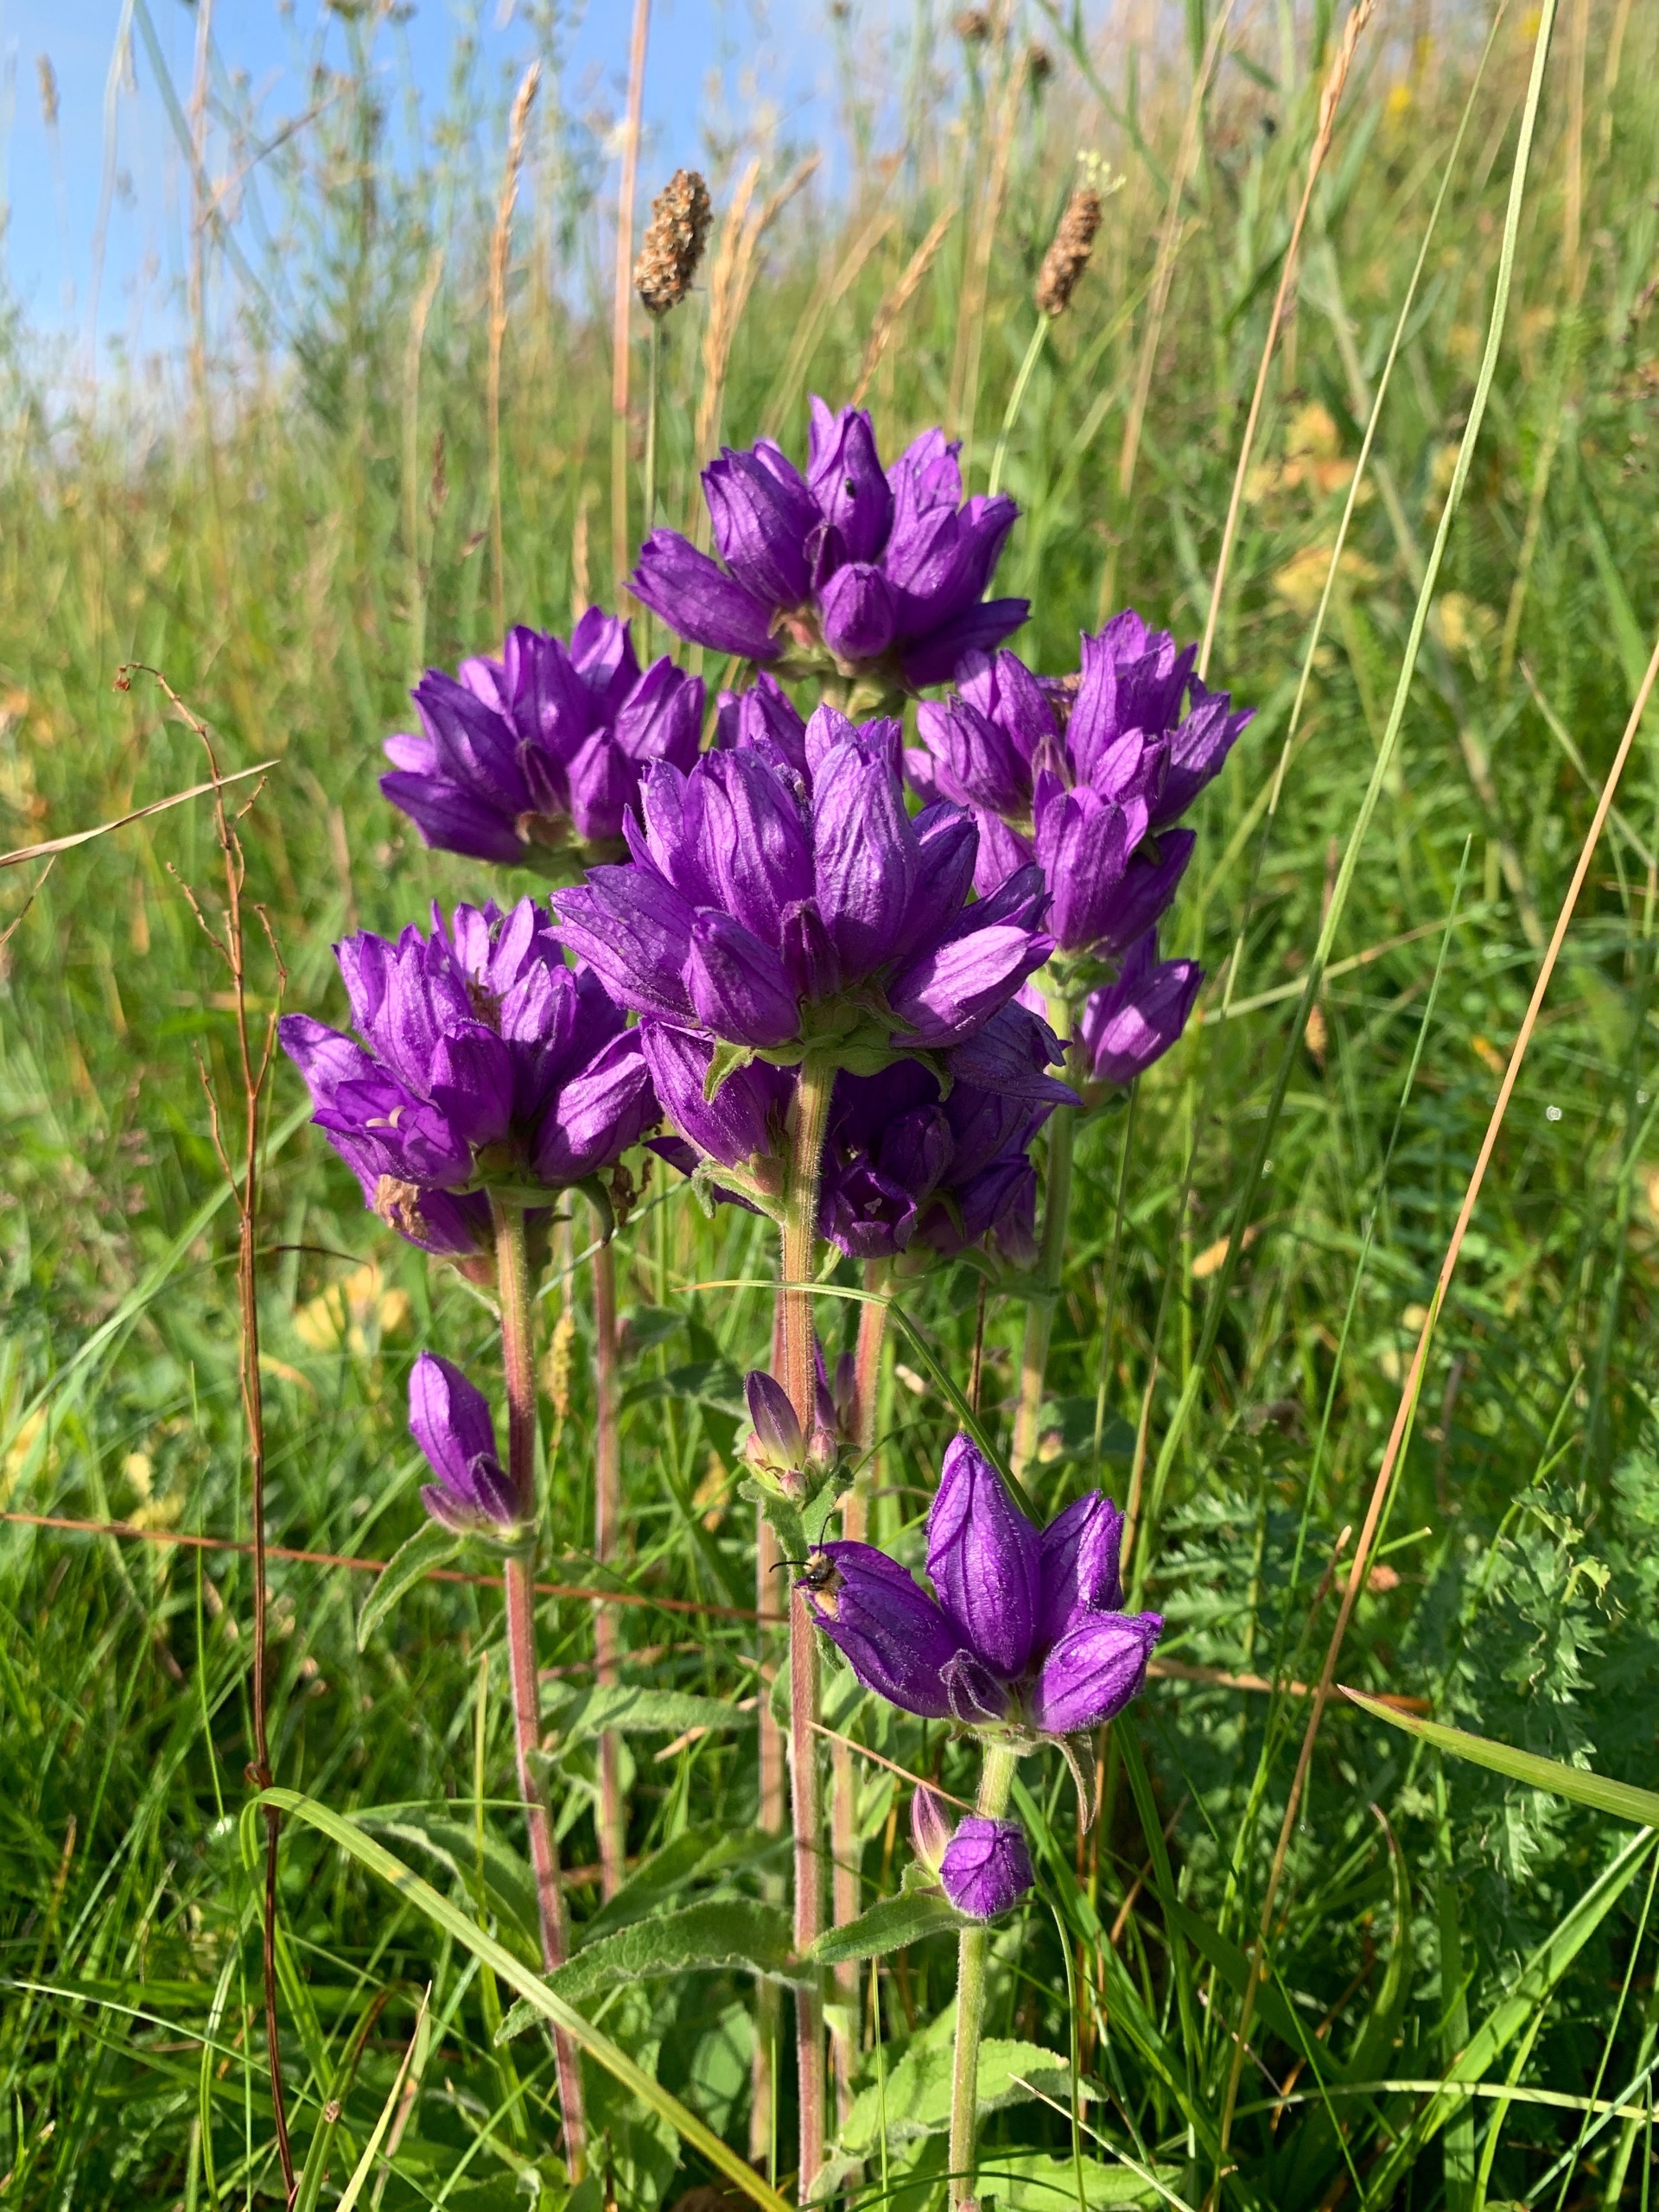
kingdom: Plantae
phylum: Tracheophyta
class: Magnoliopsida
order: Asterales
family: Campanulaceae
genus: Campanula
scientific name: Campanula glomerata
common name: Nøgleblomstret klokke
